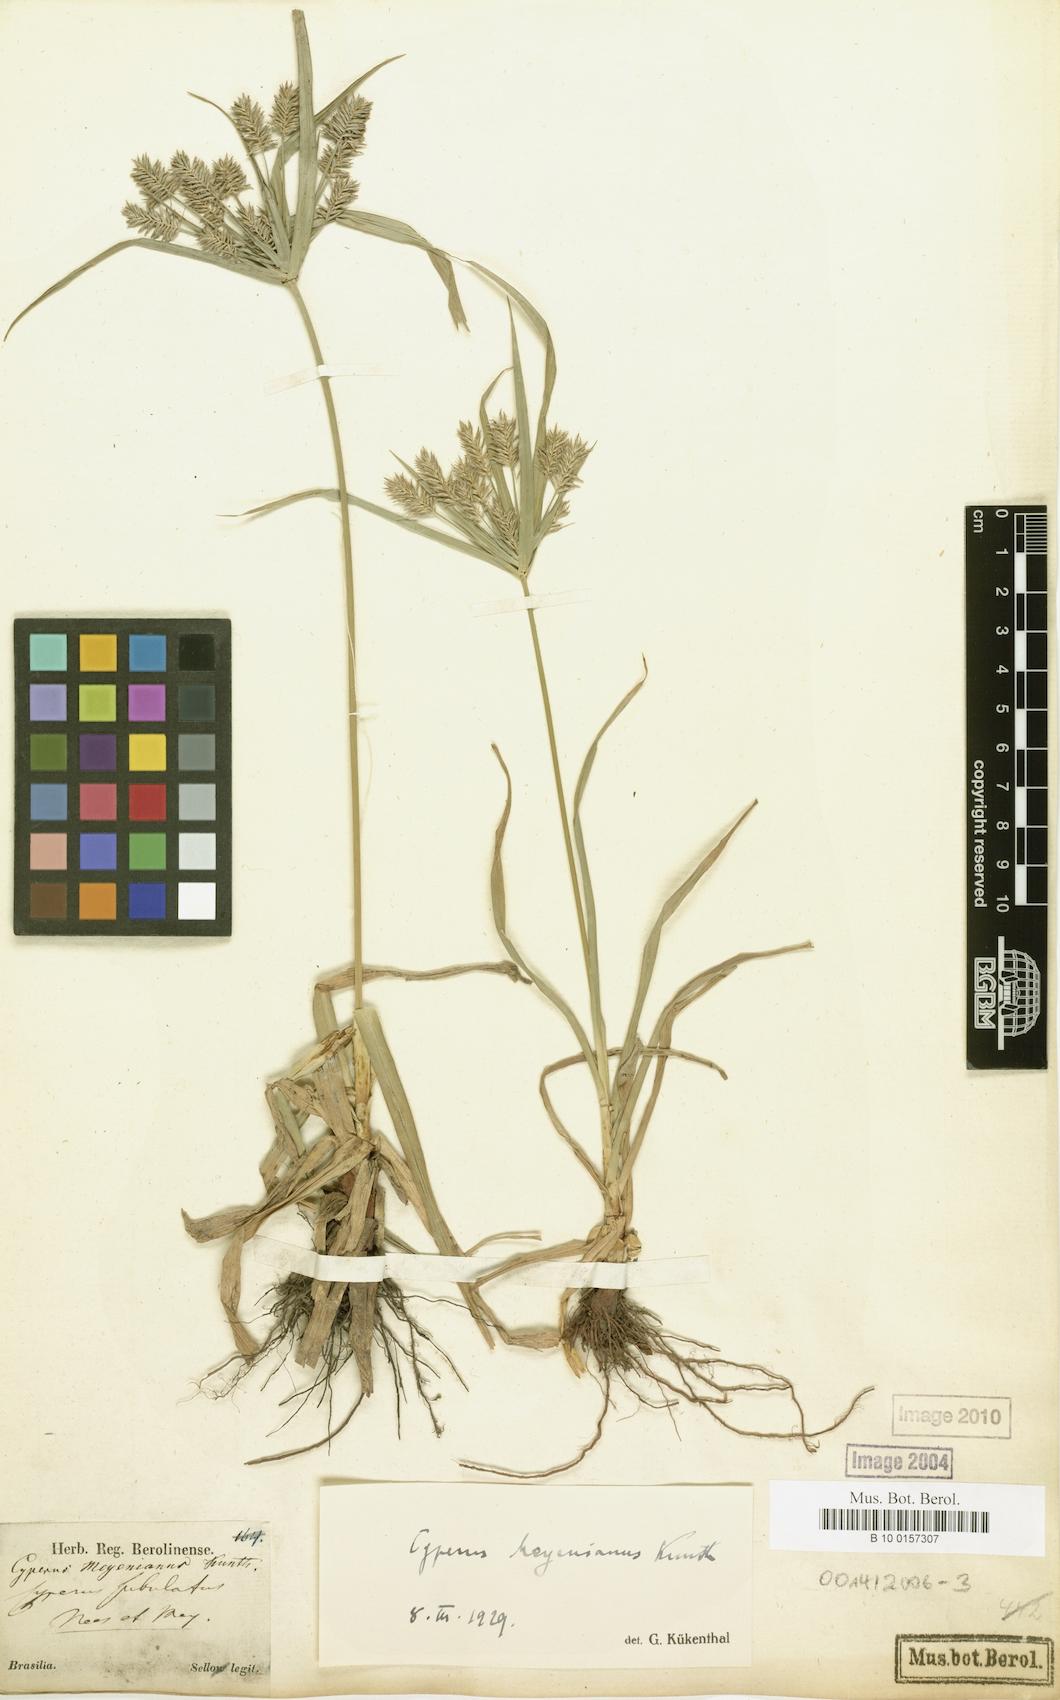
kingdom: Plantae
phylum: Tracheophyta
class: Liliopsida
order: Poales
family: Cyperaceae
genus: Cyperus
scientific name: Cyperus meyenianus
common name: Meyen's flatsedge
